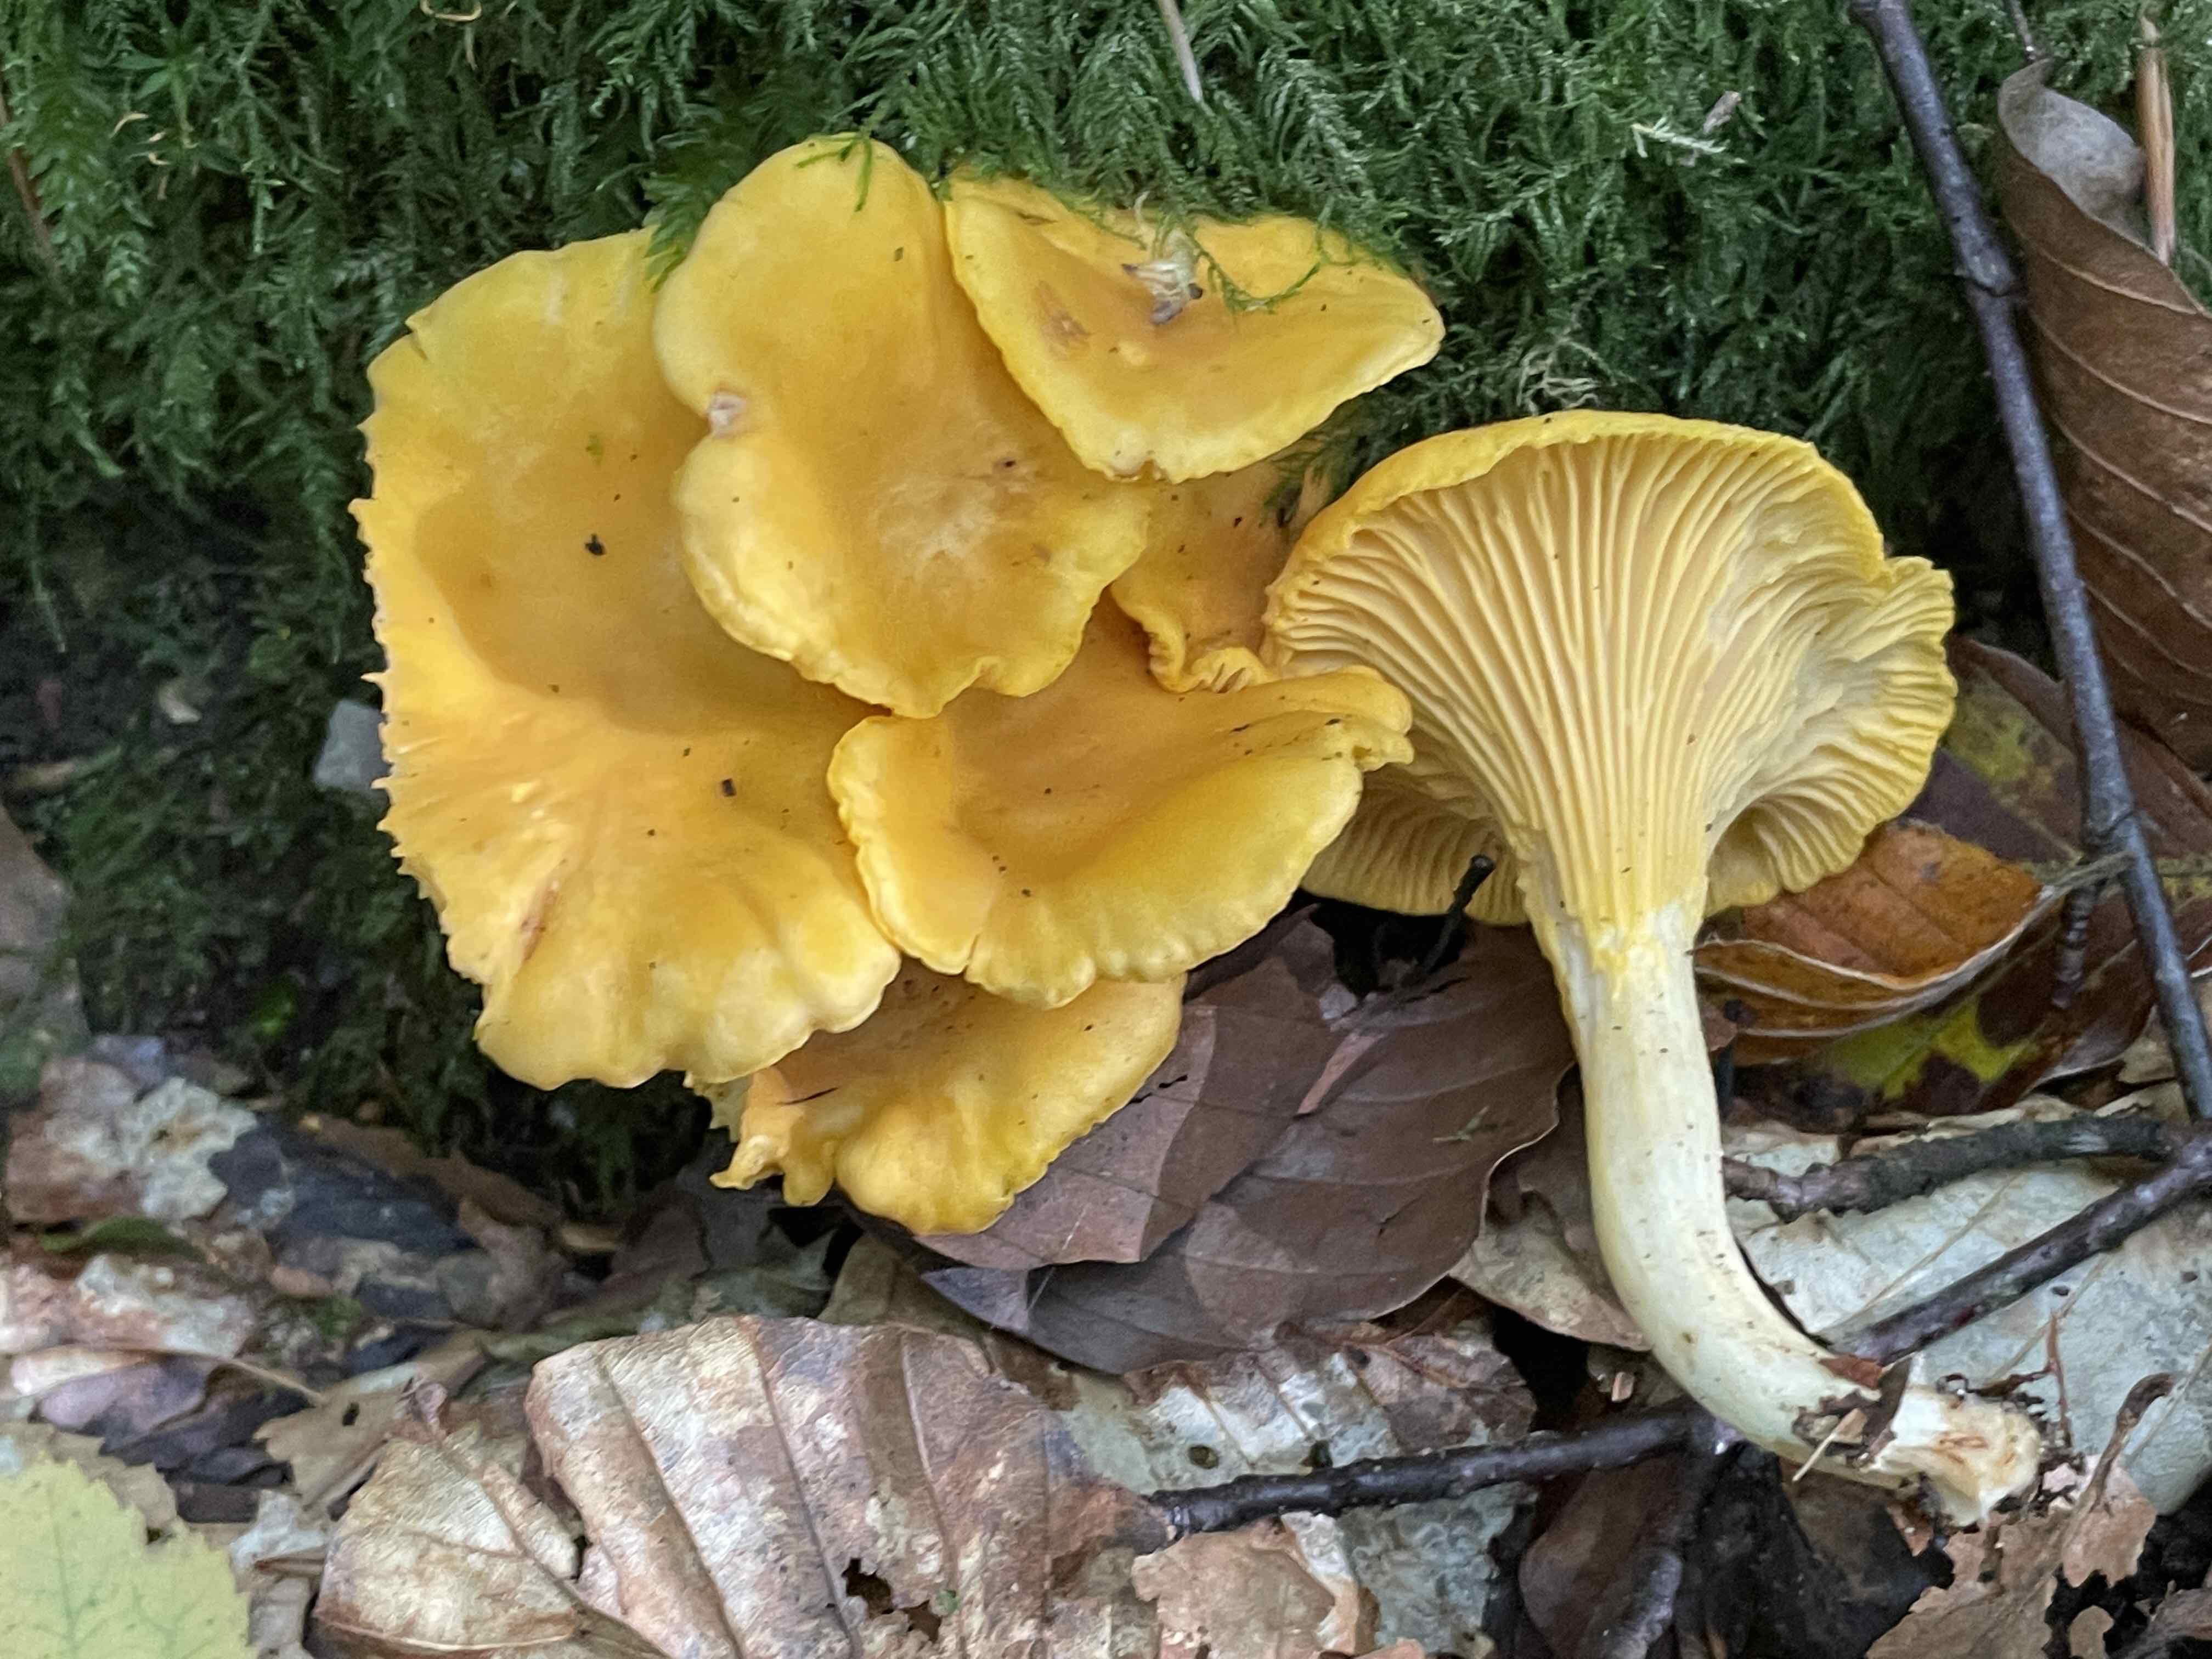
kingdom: Fungi
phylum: Basidiomycota
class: Agaricomycetes
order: Cantharellales
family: Hydnaceae
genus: Cantharellus
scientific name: Cantharellus pallens
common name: bleg kantarel
